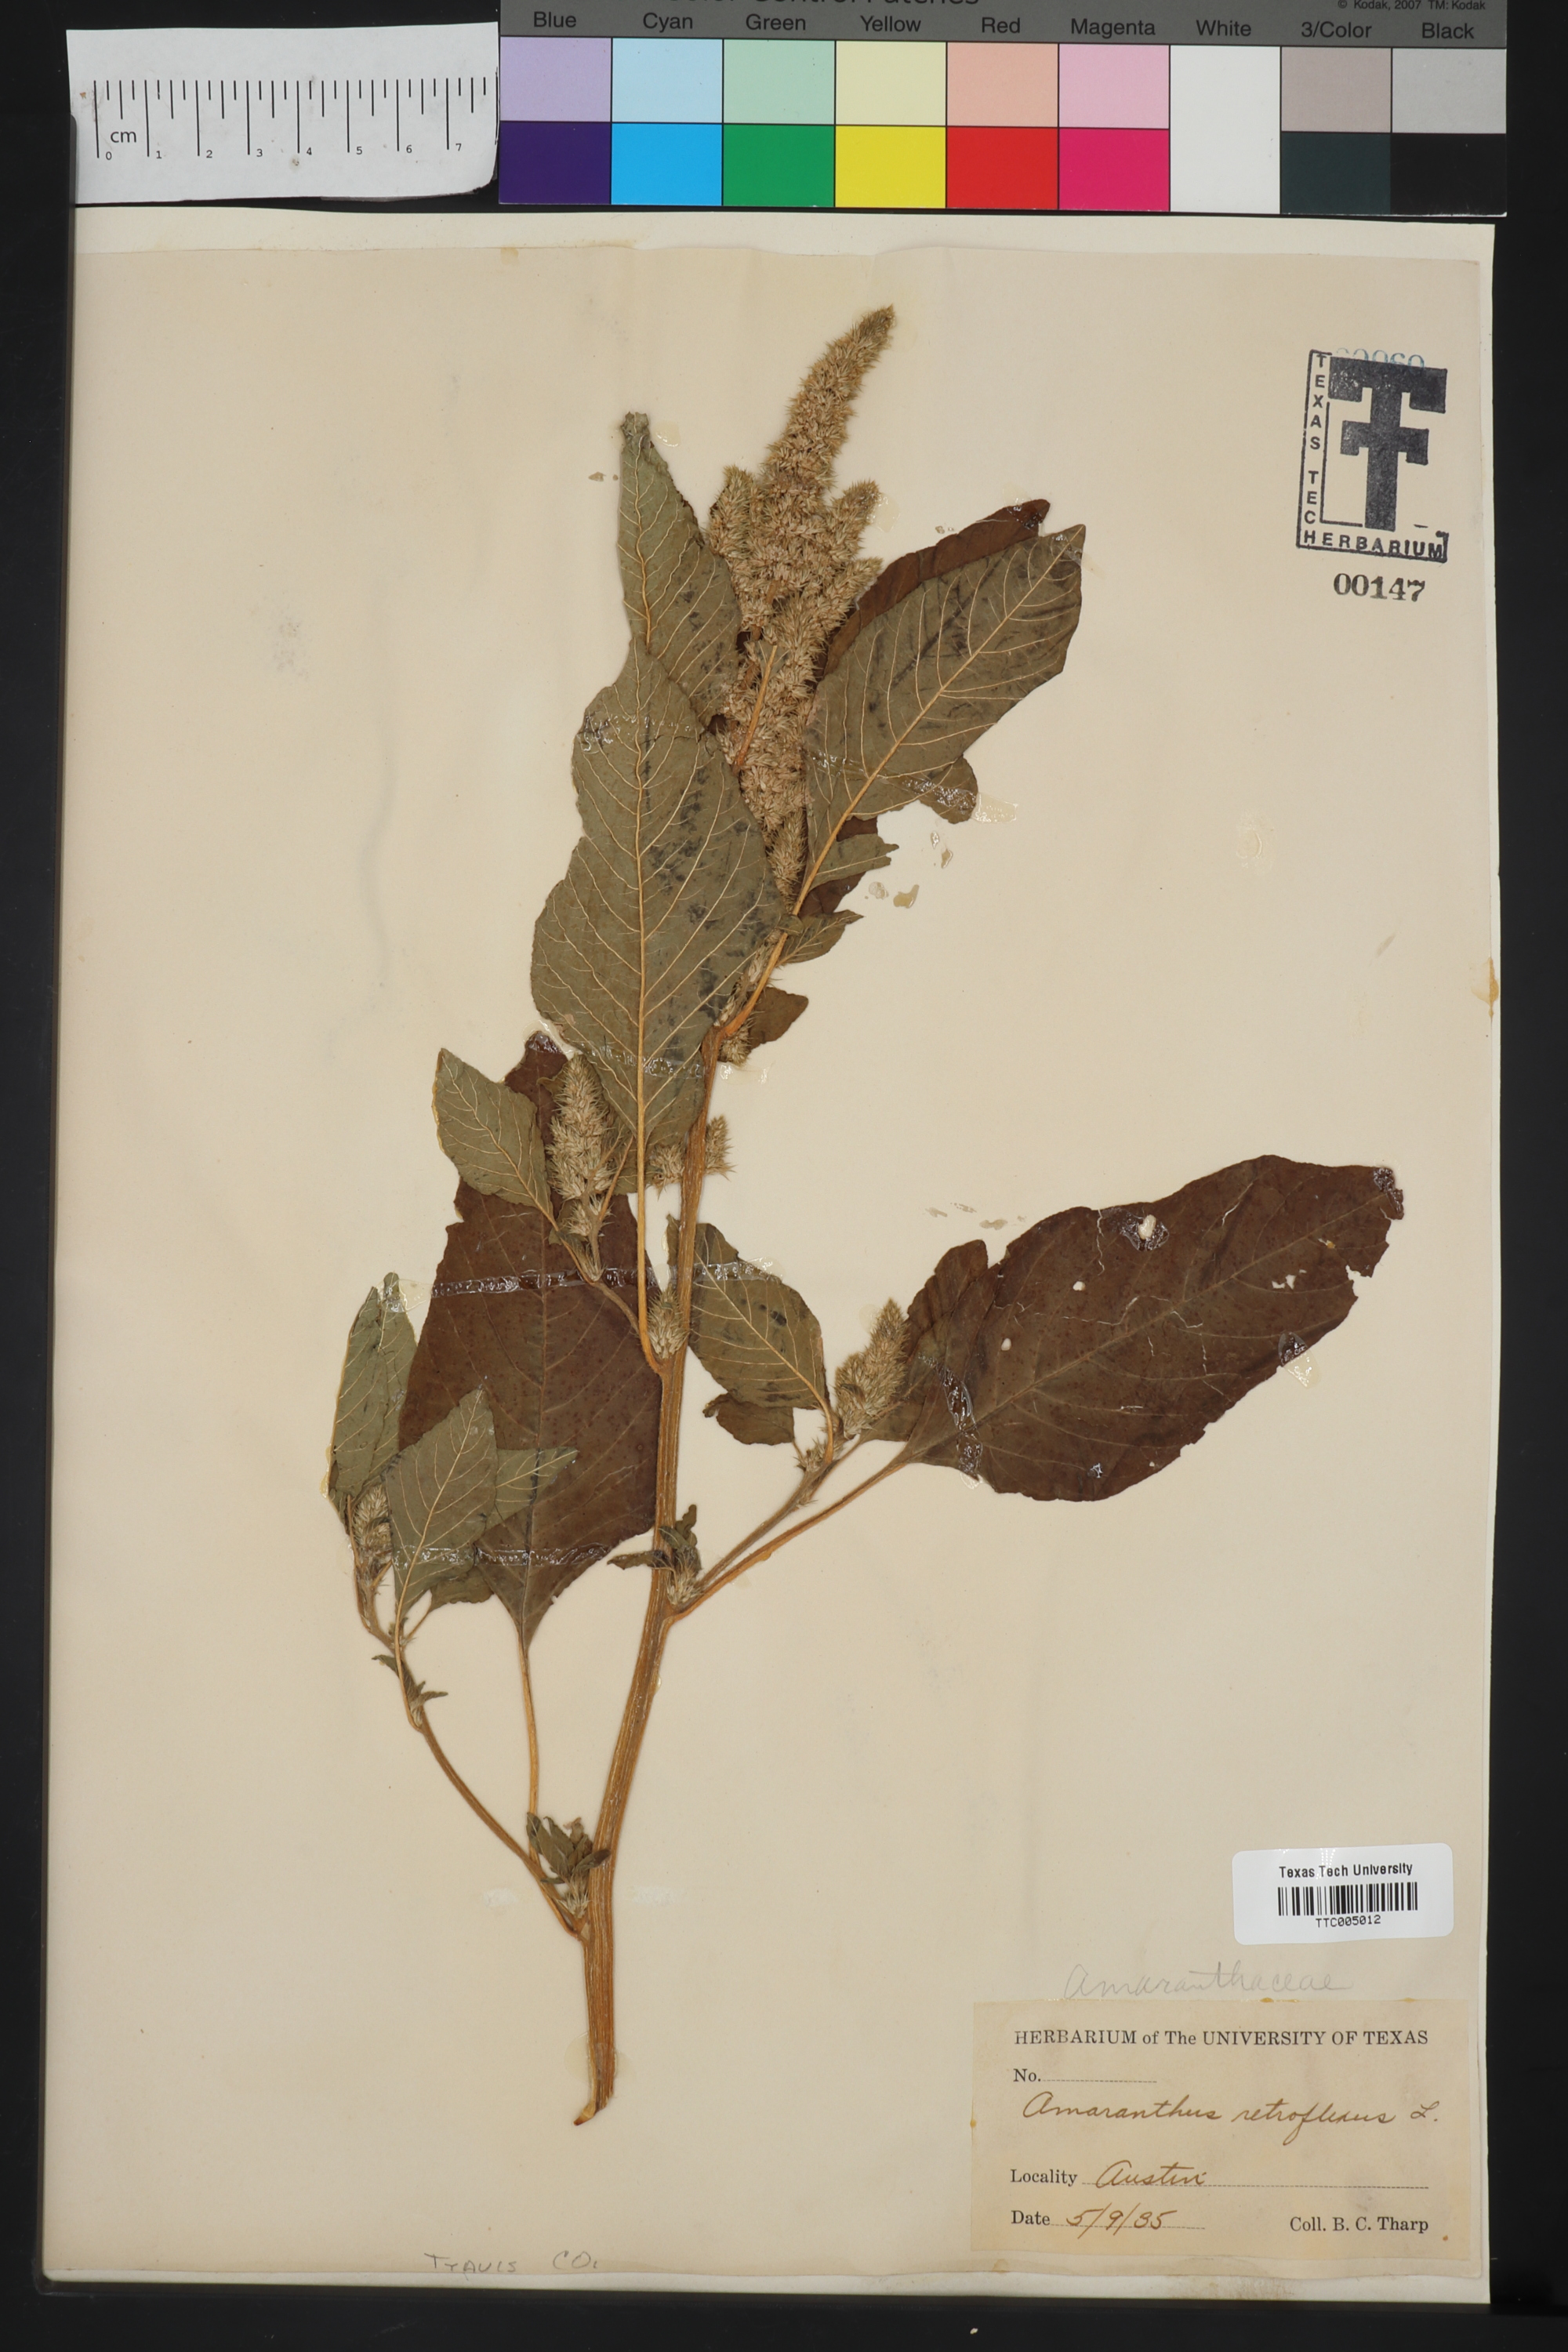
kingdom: Plantae
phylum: Tracheophyta
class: Magnoliopsida
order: Caryophyllales
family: Amaranthaceae
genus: Amaranthus
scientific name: Amaranthus retroflexus
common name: Redroot amaranth
